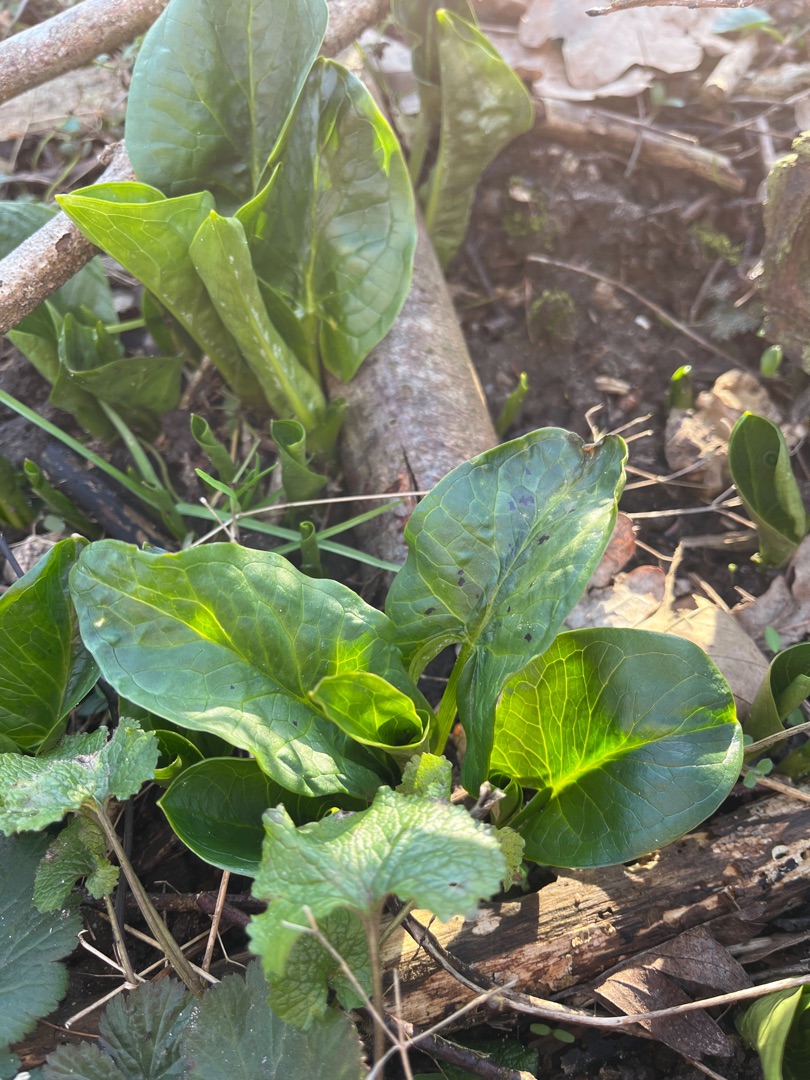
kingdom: Plantae
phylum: Tracheophyta
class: Liliopsida
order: Alismatales
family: Araceae
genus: Arum
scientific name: Arum maculatum
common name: Plettet arum
